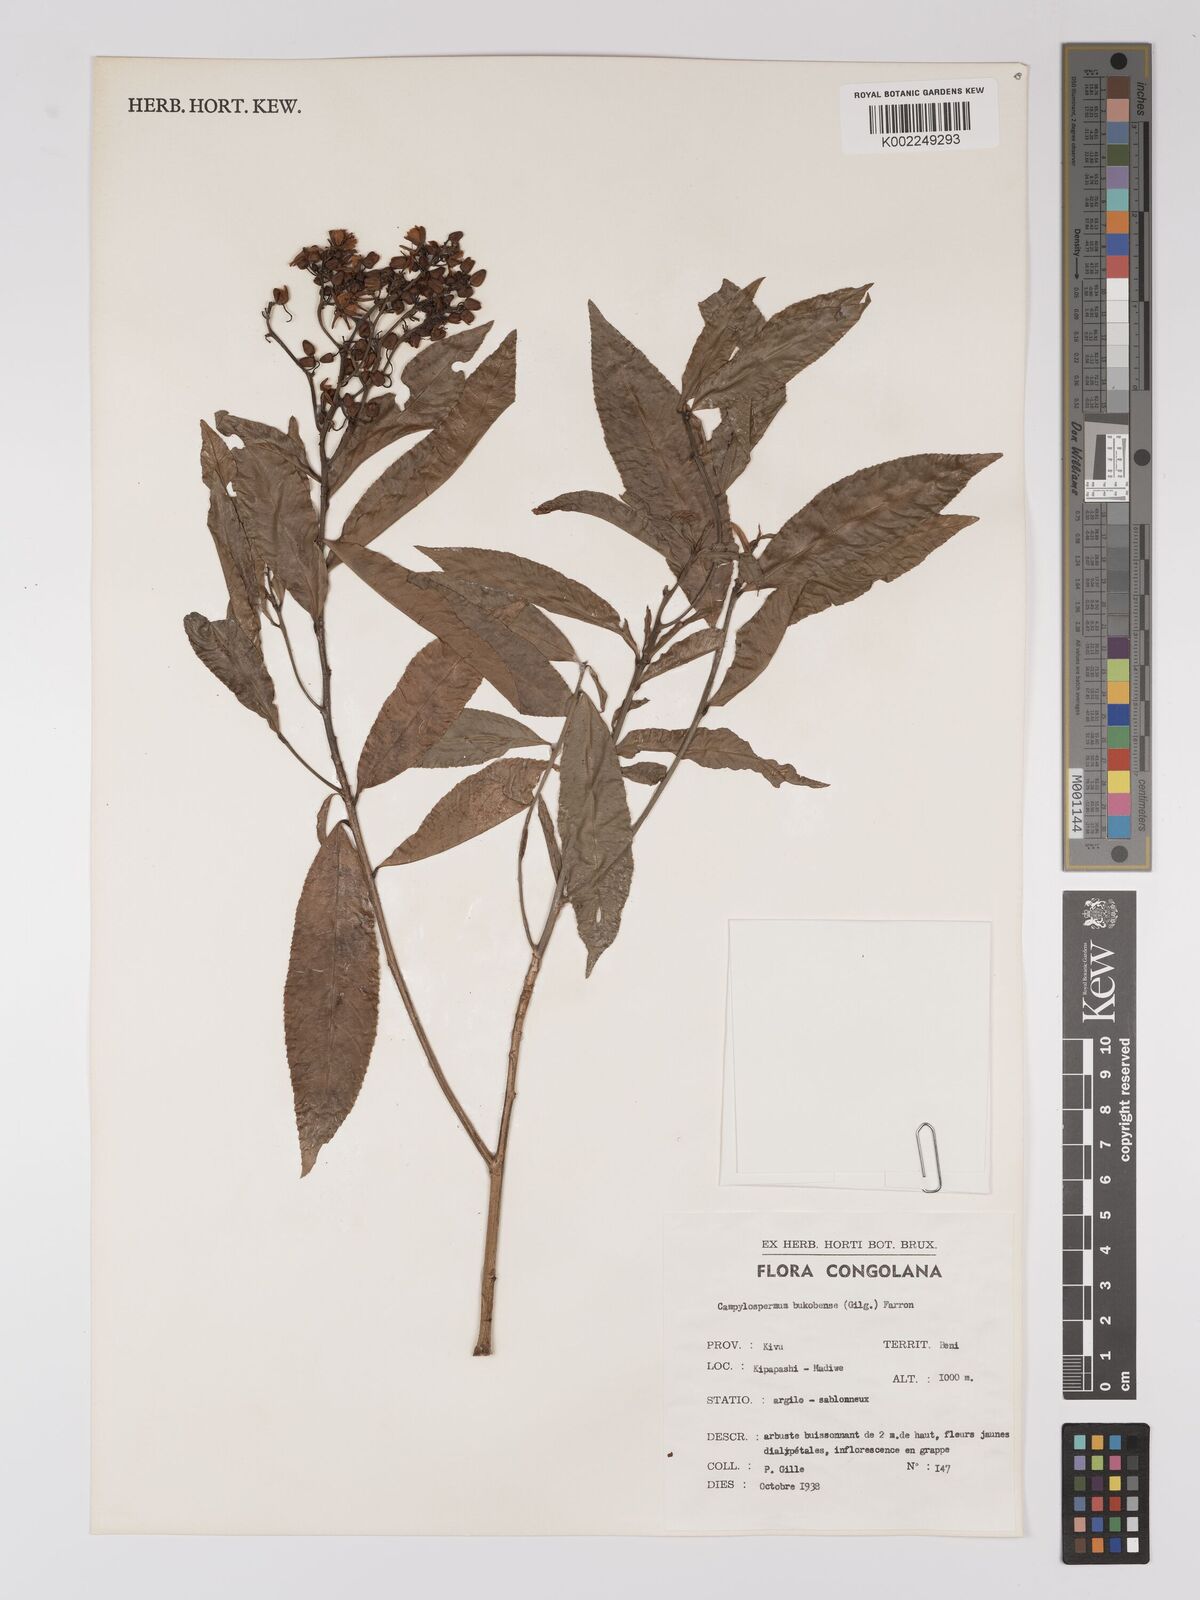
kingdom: Plantae
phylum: Tracheophyta
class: Magnoliopsida
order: Malpighiales
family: Ochnaceae
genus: Campylospermum
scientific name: Campylospermum likimiense
